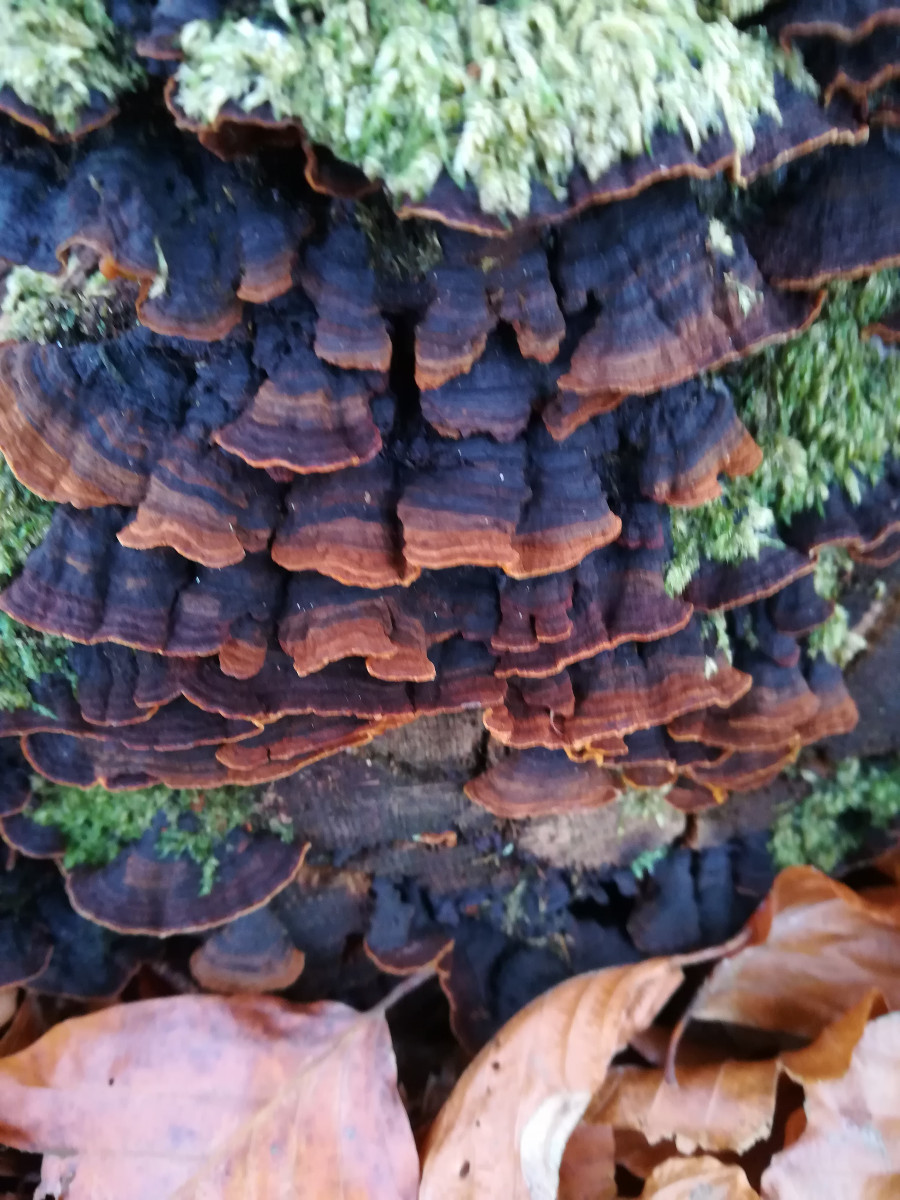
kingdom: Fungi
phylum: Basidiomycota
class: Agaricomycetes
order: Hymenochaetales
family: Hymenochaetaceae
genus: Hymenochaete
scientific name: Hymenochaete rubiginosa
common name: stiv ruslædersvamp
